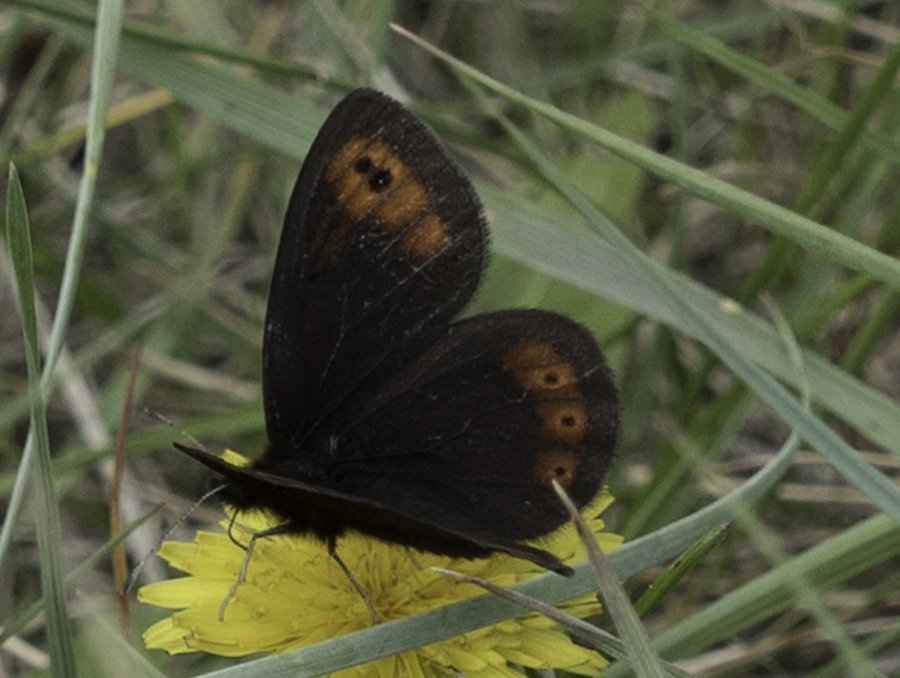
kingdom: Animalia
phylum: Arthropoda
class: Insecta
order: Lepidoptera
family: Nymphalidae
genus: Erebia
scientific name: Erebia epipsodea
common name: Common Alpine
